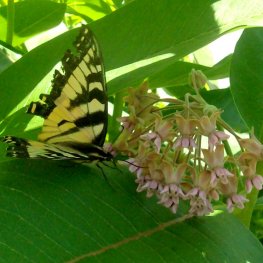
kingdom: Animalia
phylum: Arthropoda
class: Insecta
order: Lepidoptera
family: Papilionidae
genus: Pterourus
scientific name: Pterourus canadensis
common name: Canadian Tiger Swallowtail
